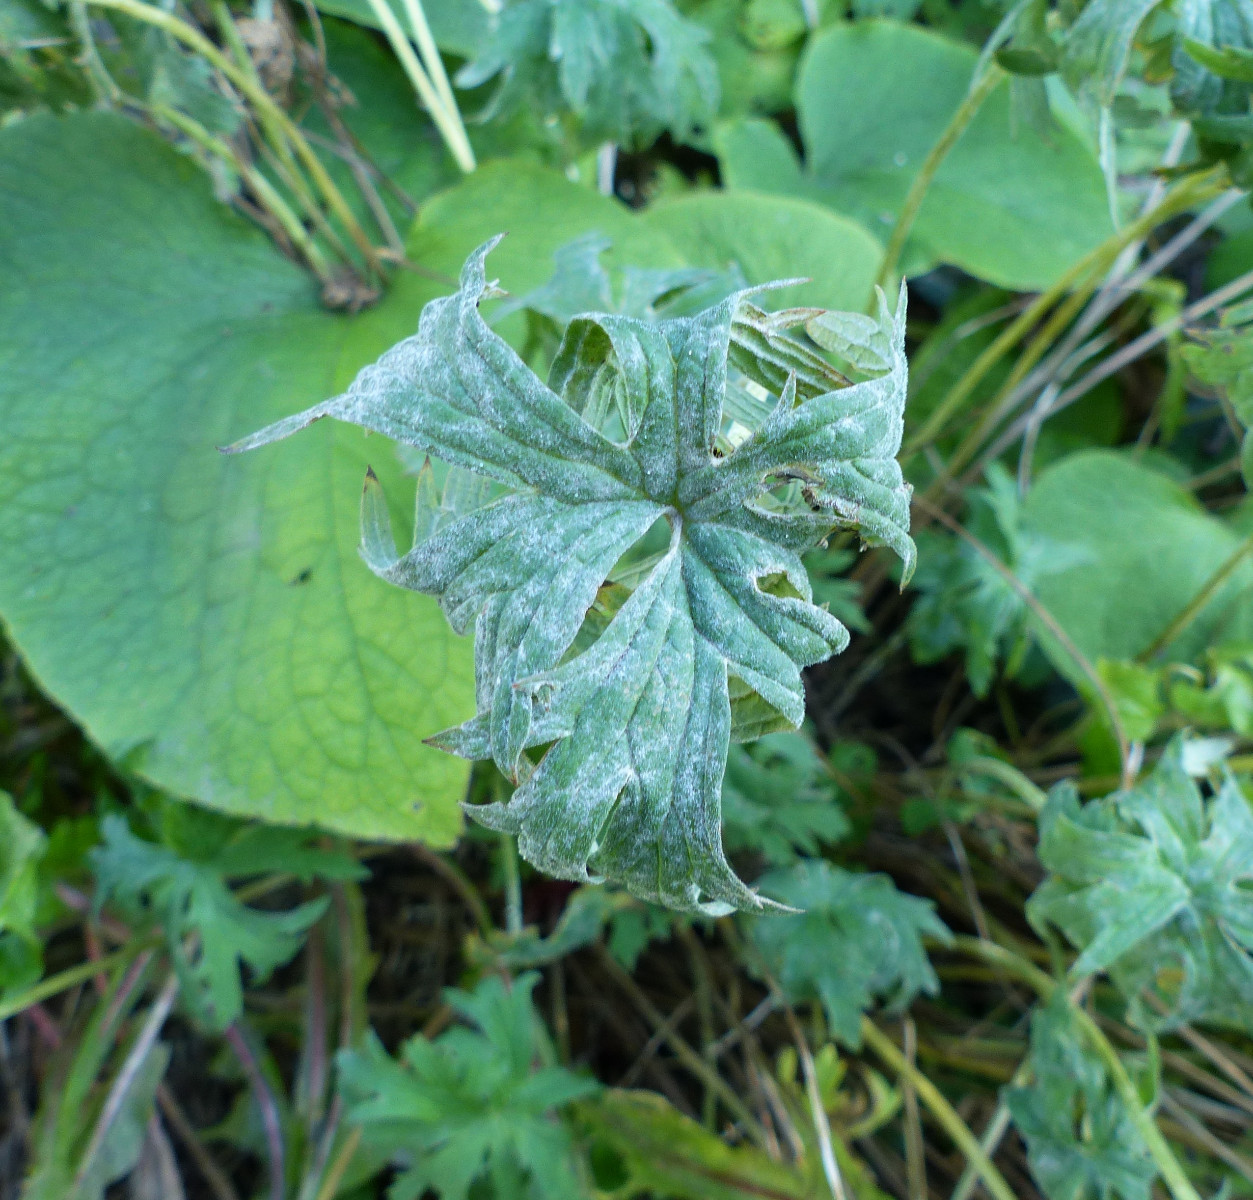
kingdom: Fungi
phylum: Ascomycota
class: Leotiomycetes
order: Helotiales
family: Erysiphaceae
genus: Podosphaera
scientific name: Podosphaera fugax
